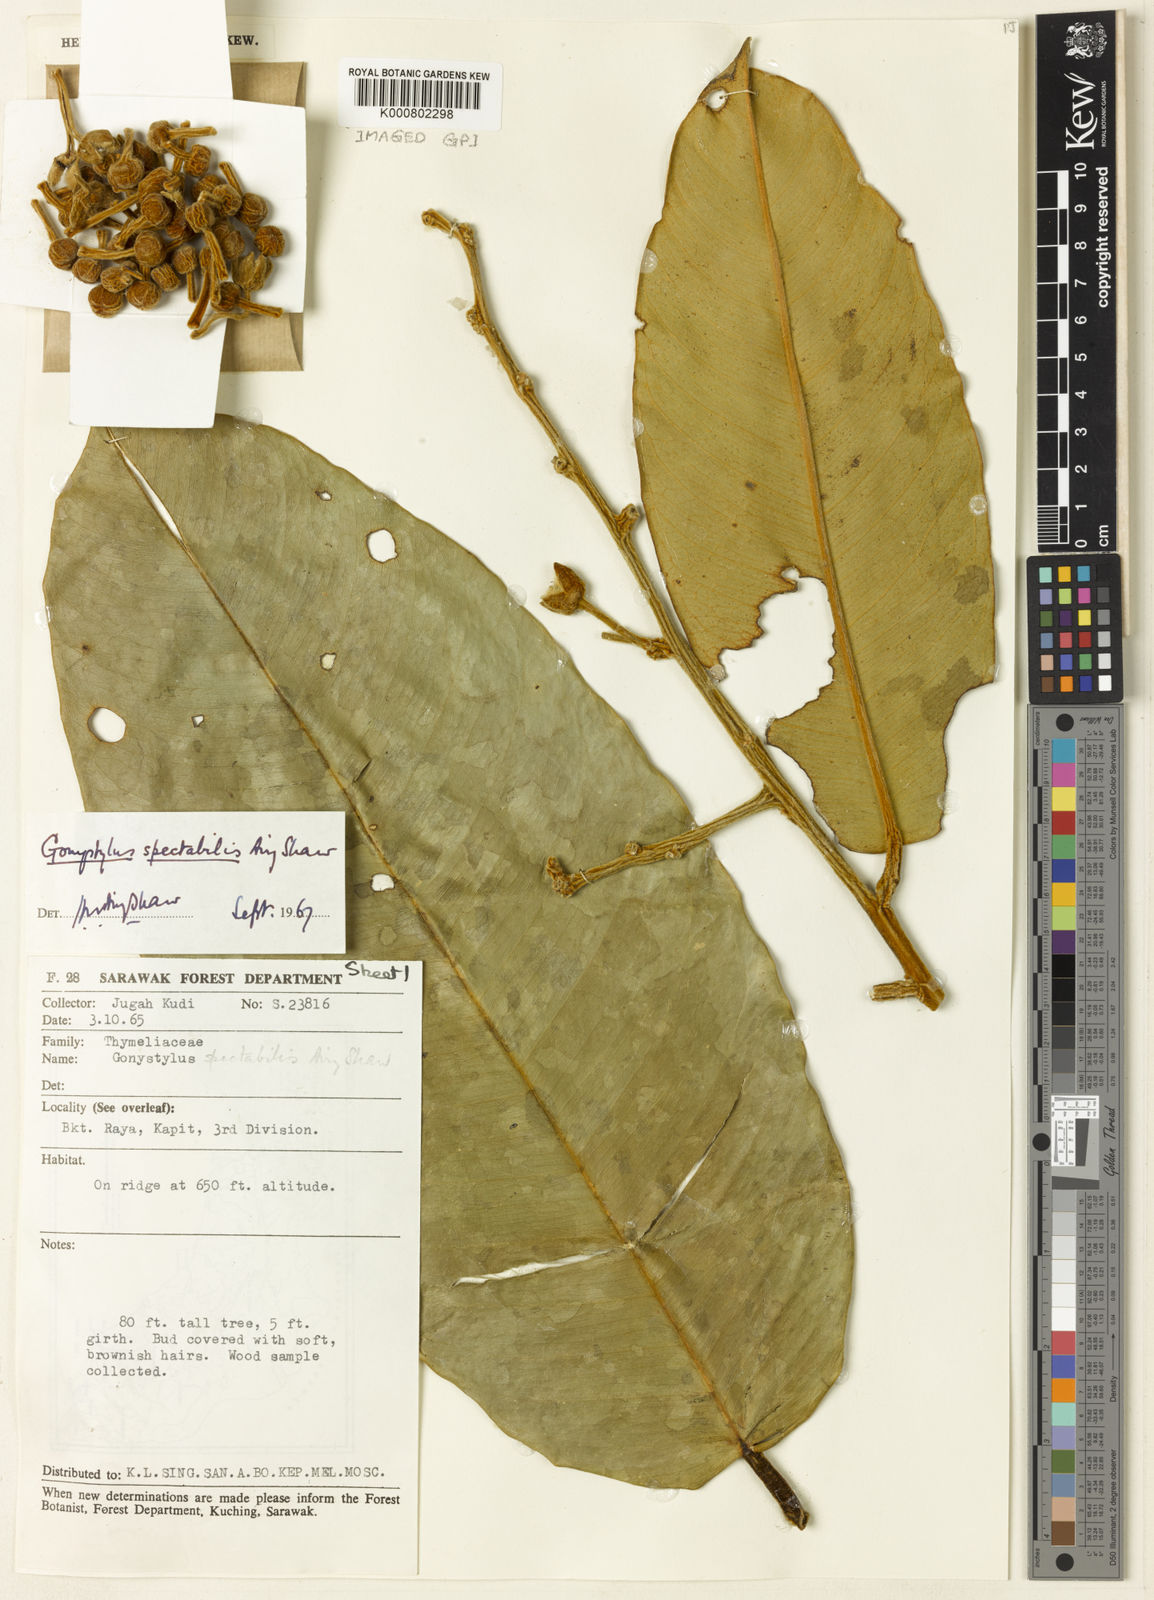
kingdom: Plantae
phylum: Tracheophyta
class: Magnoliopsida
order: Malvales
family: Thymelaeaceae
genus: Gonystylus
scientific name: Gonystylus spectabilis
